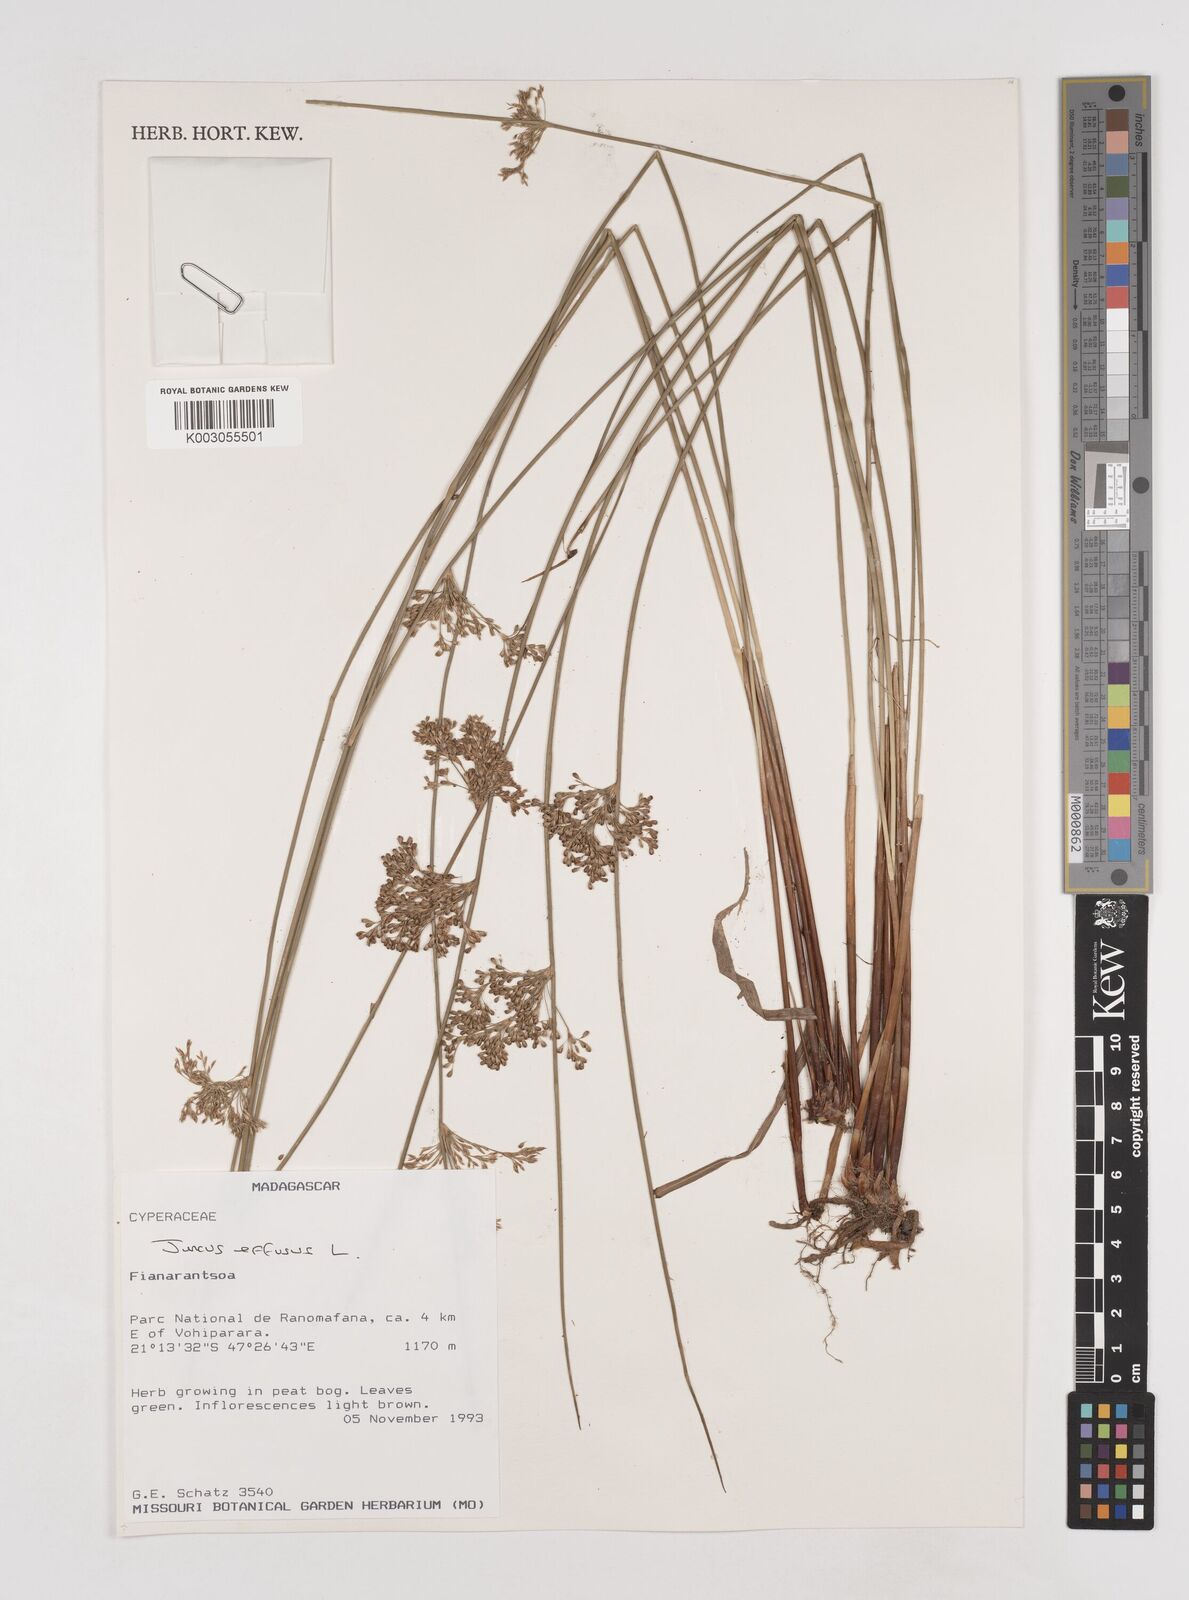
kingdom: Plantae
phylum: Tracheophyta
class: Liliopsida
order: Poales
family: Juncaceae
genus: Juncus
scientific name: Juncus effusus
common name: Soft rush
